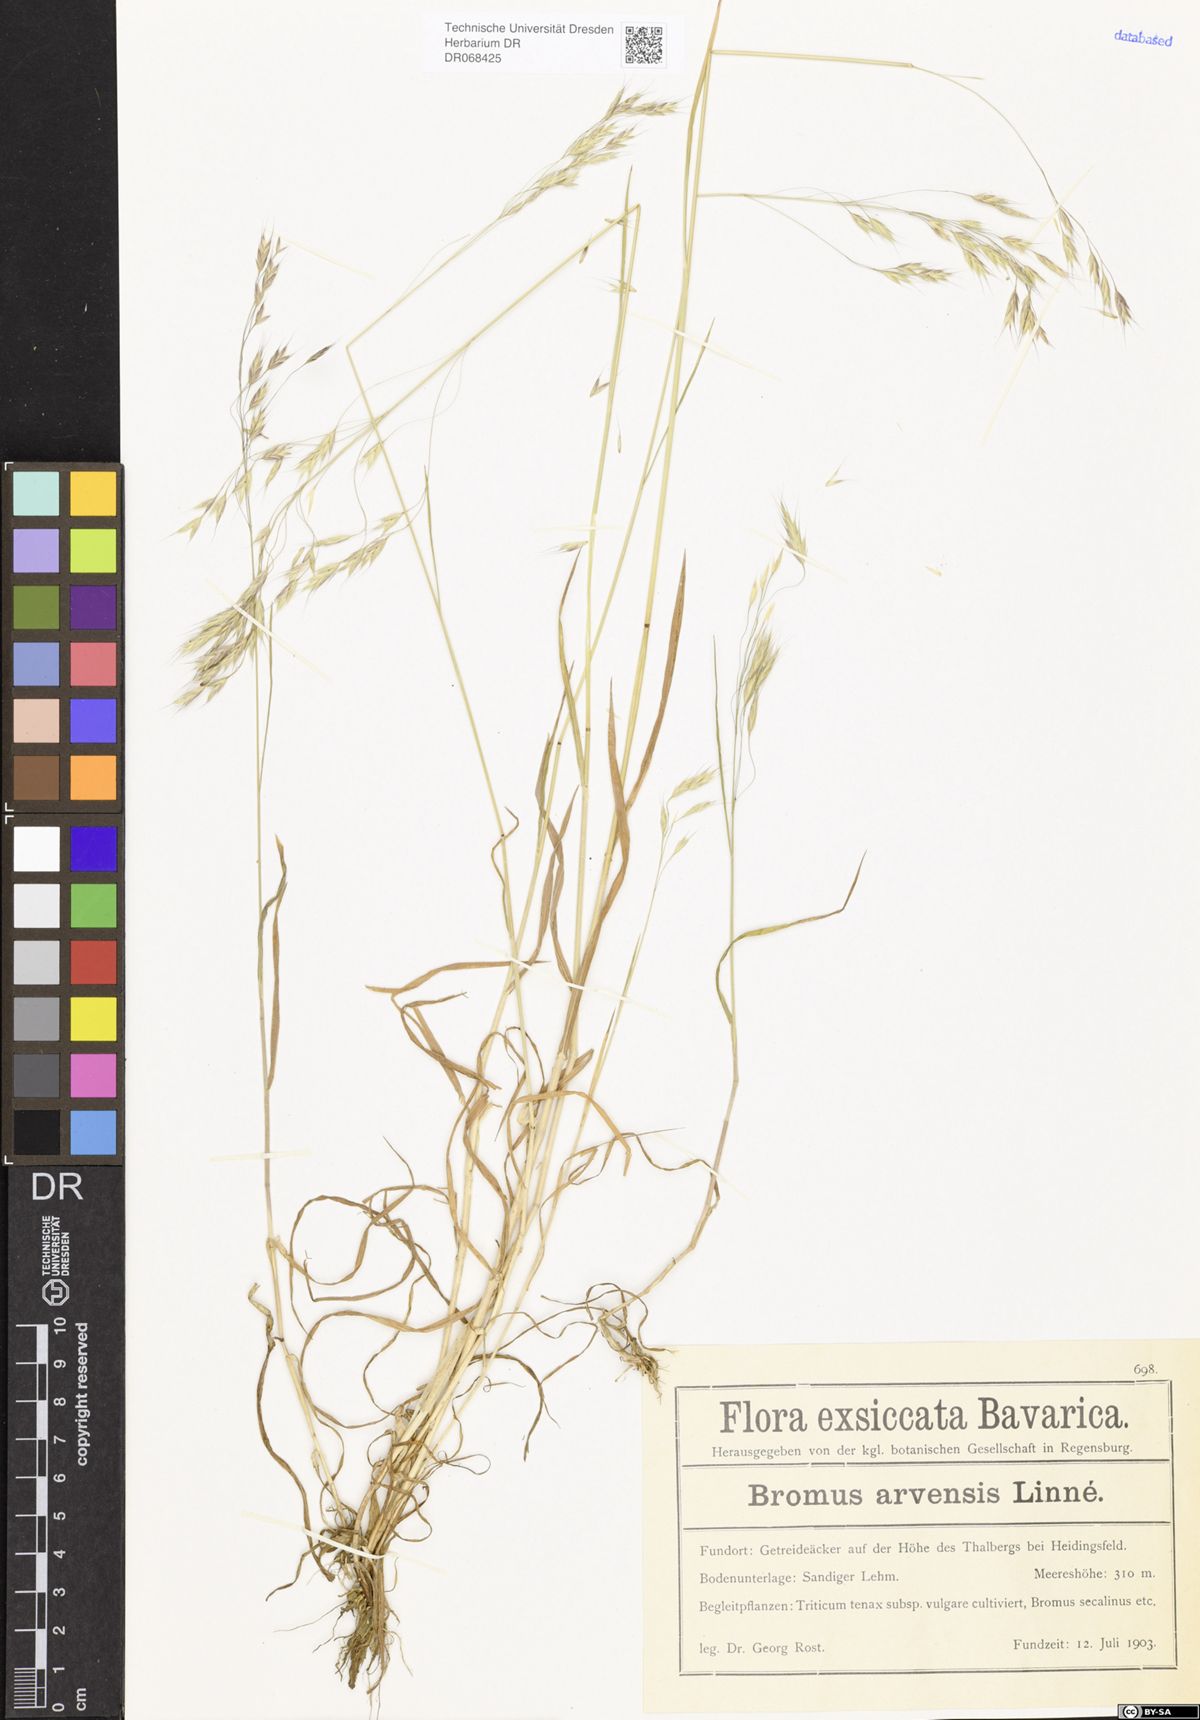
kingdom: Plantae
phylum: Tracheophyta
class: Liliopsida
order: Poales
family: Poaceae
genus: Bromus
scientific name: Bromus arvensis
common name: Field brome
